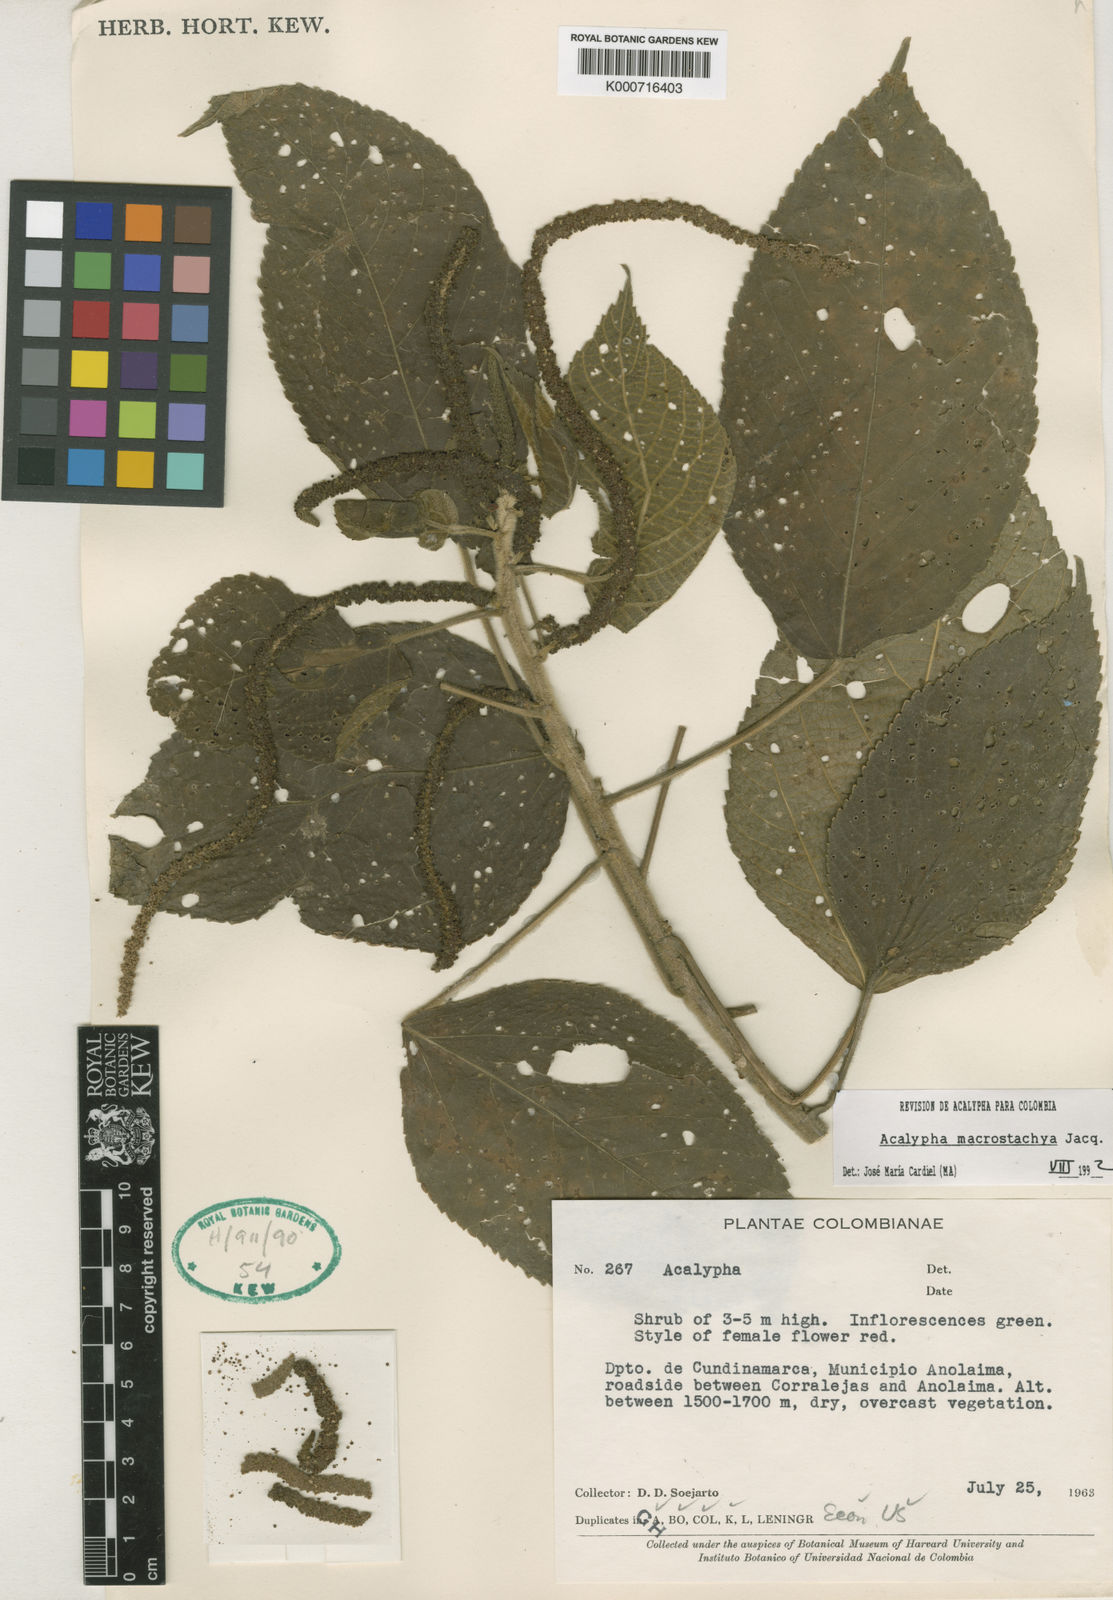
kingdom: Plantae
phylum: Tracheophyta
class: Magnoliopsida
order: Malpighiales
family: Euphorbiaceae
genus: Acalypha
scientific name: Acalypha macrostachya
